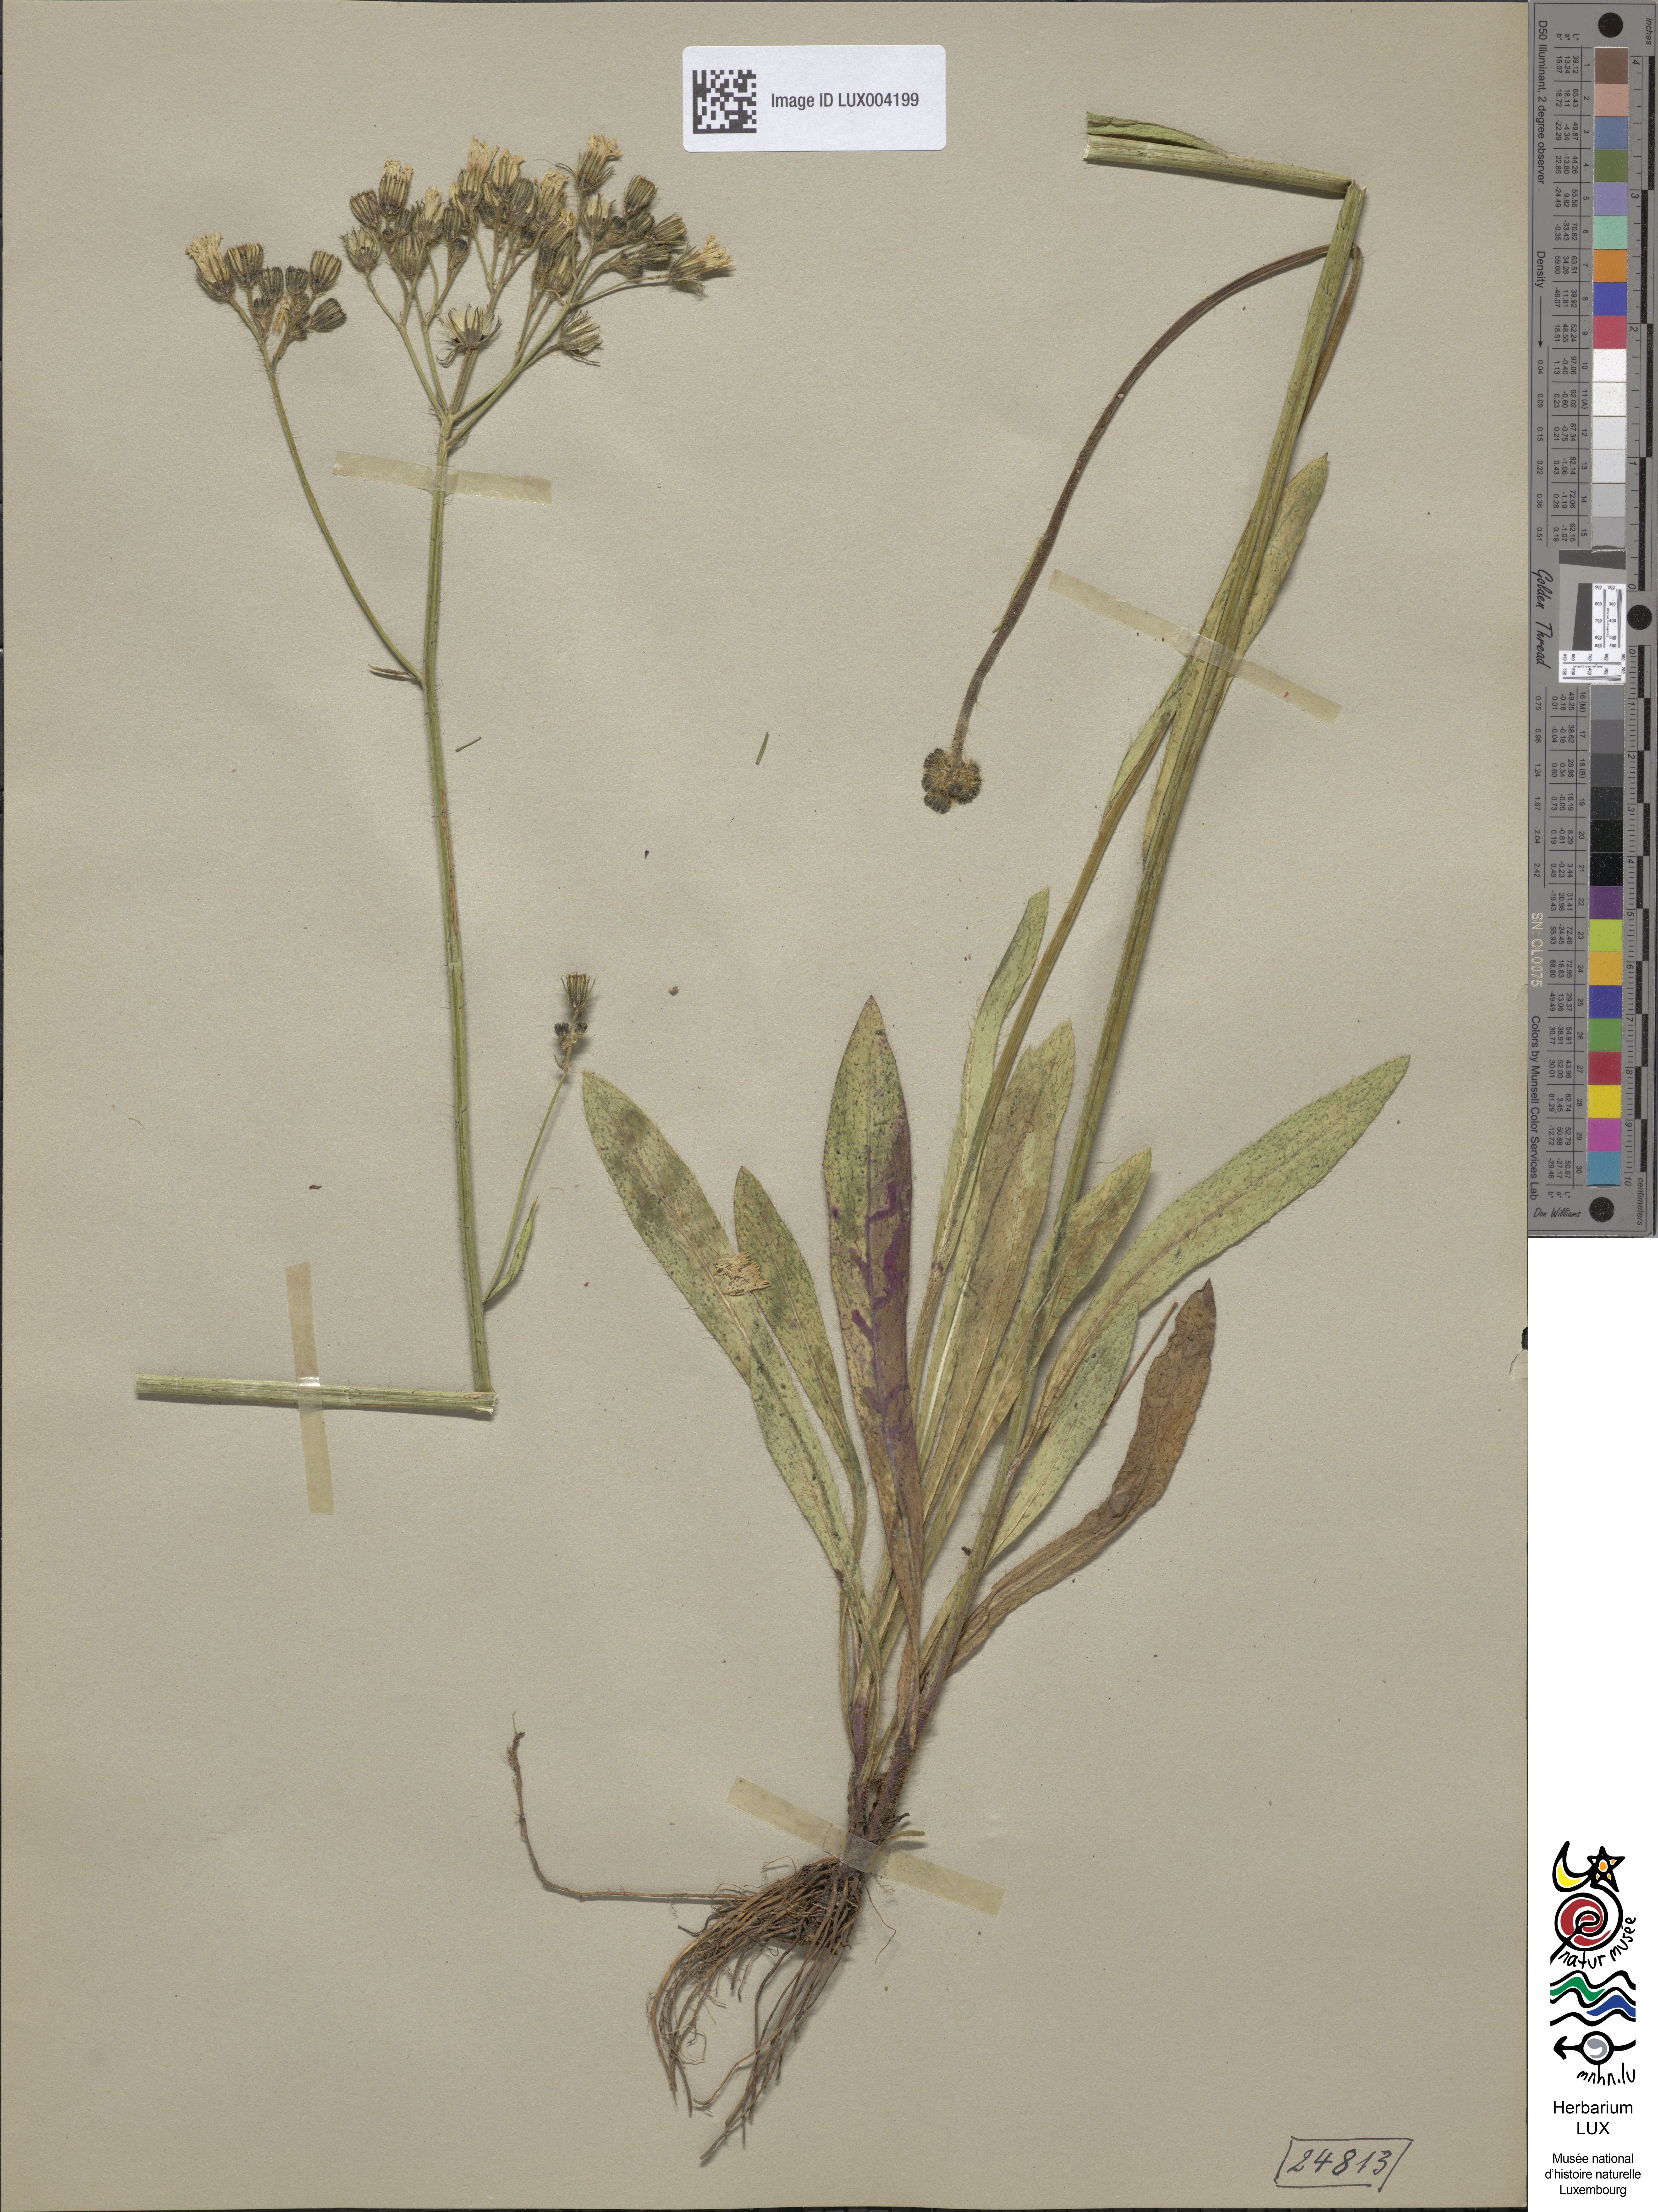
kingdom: Plantae
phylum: Tracheophyta
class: Magnoliopsida
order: Asterales
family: Asteraceae
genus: Pilosella
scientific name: Pilosella ziziana
